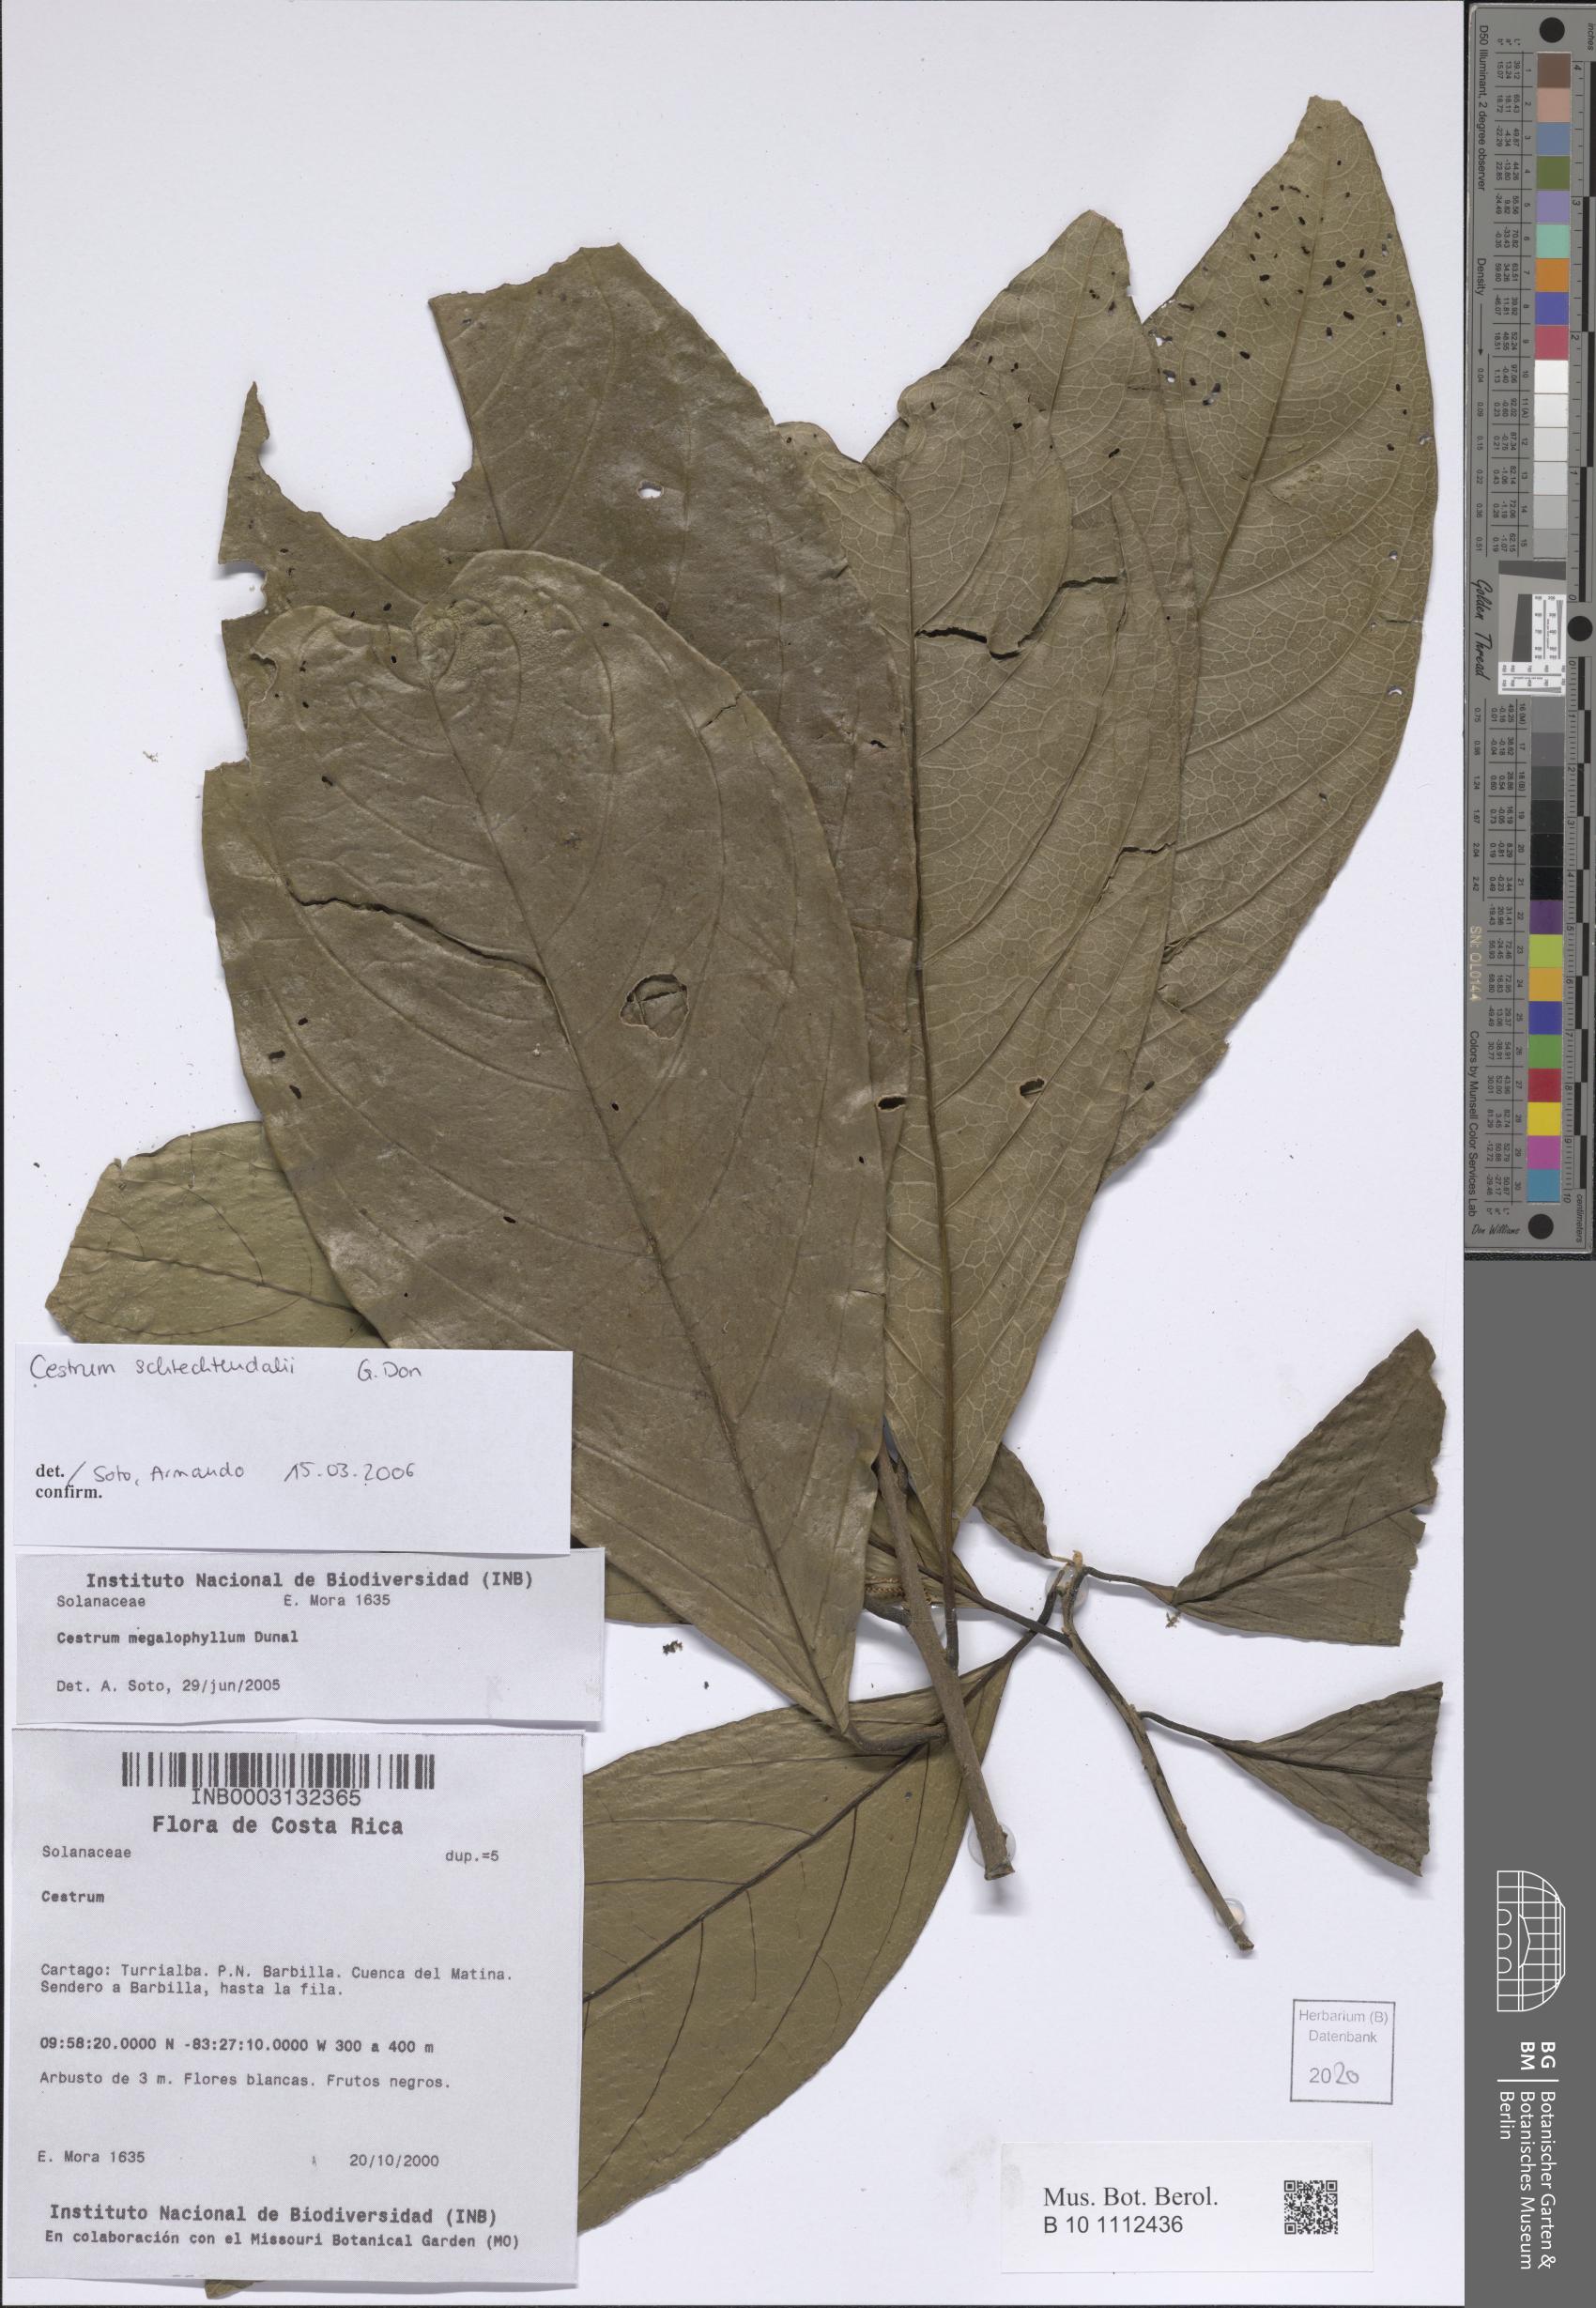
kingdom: Plantae
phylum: Tracheophyta
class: Magnoliopsida
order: Solanales
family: Solanaceae
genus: Cestrum
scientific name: Cestrum schlechtendalii
